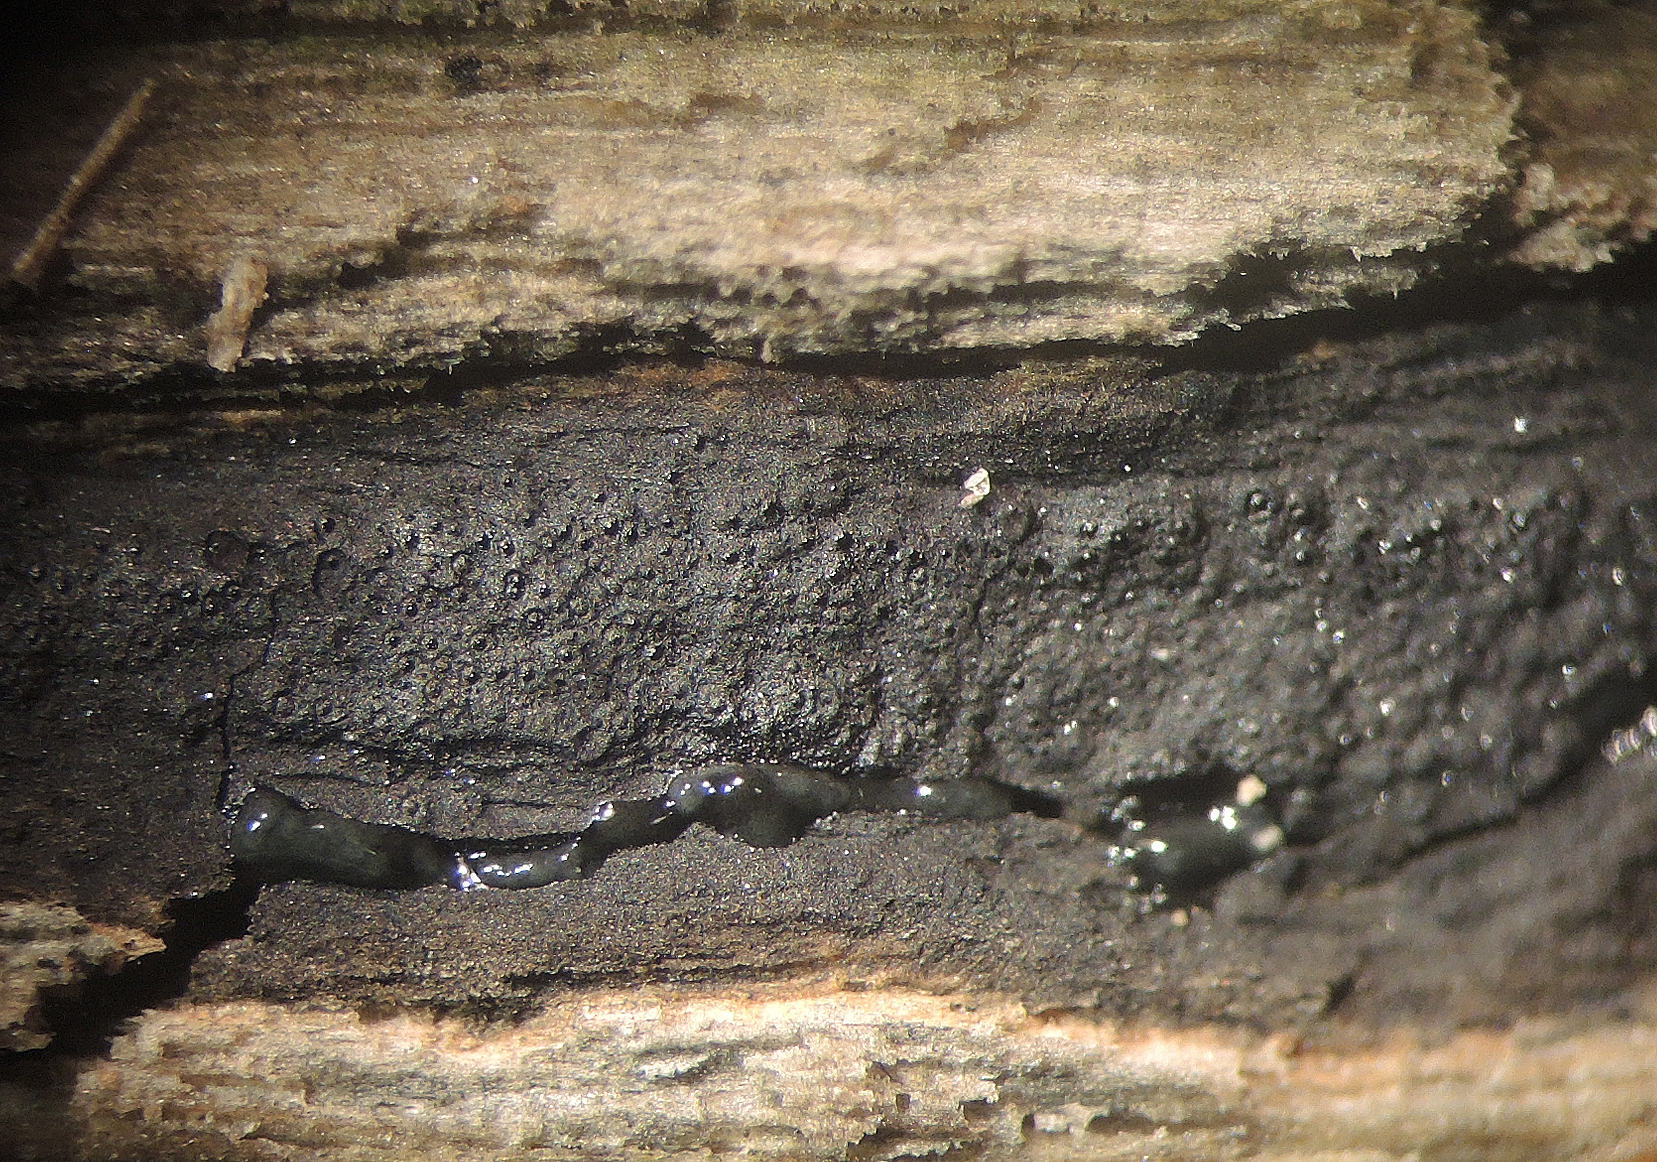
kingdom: Fungi
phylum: Ascomycota
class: Sordariomycetes
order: Boliniales
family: Boliniaceae
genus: Camaropella
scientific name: Camaropella plana
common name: flad kulsnegl
